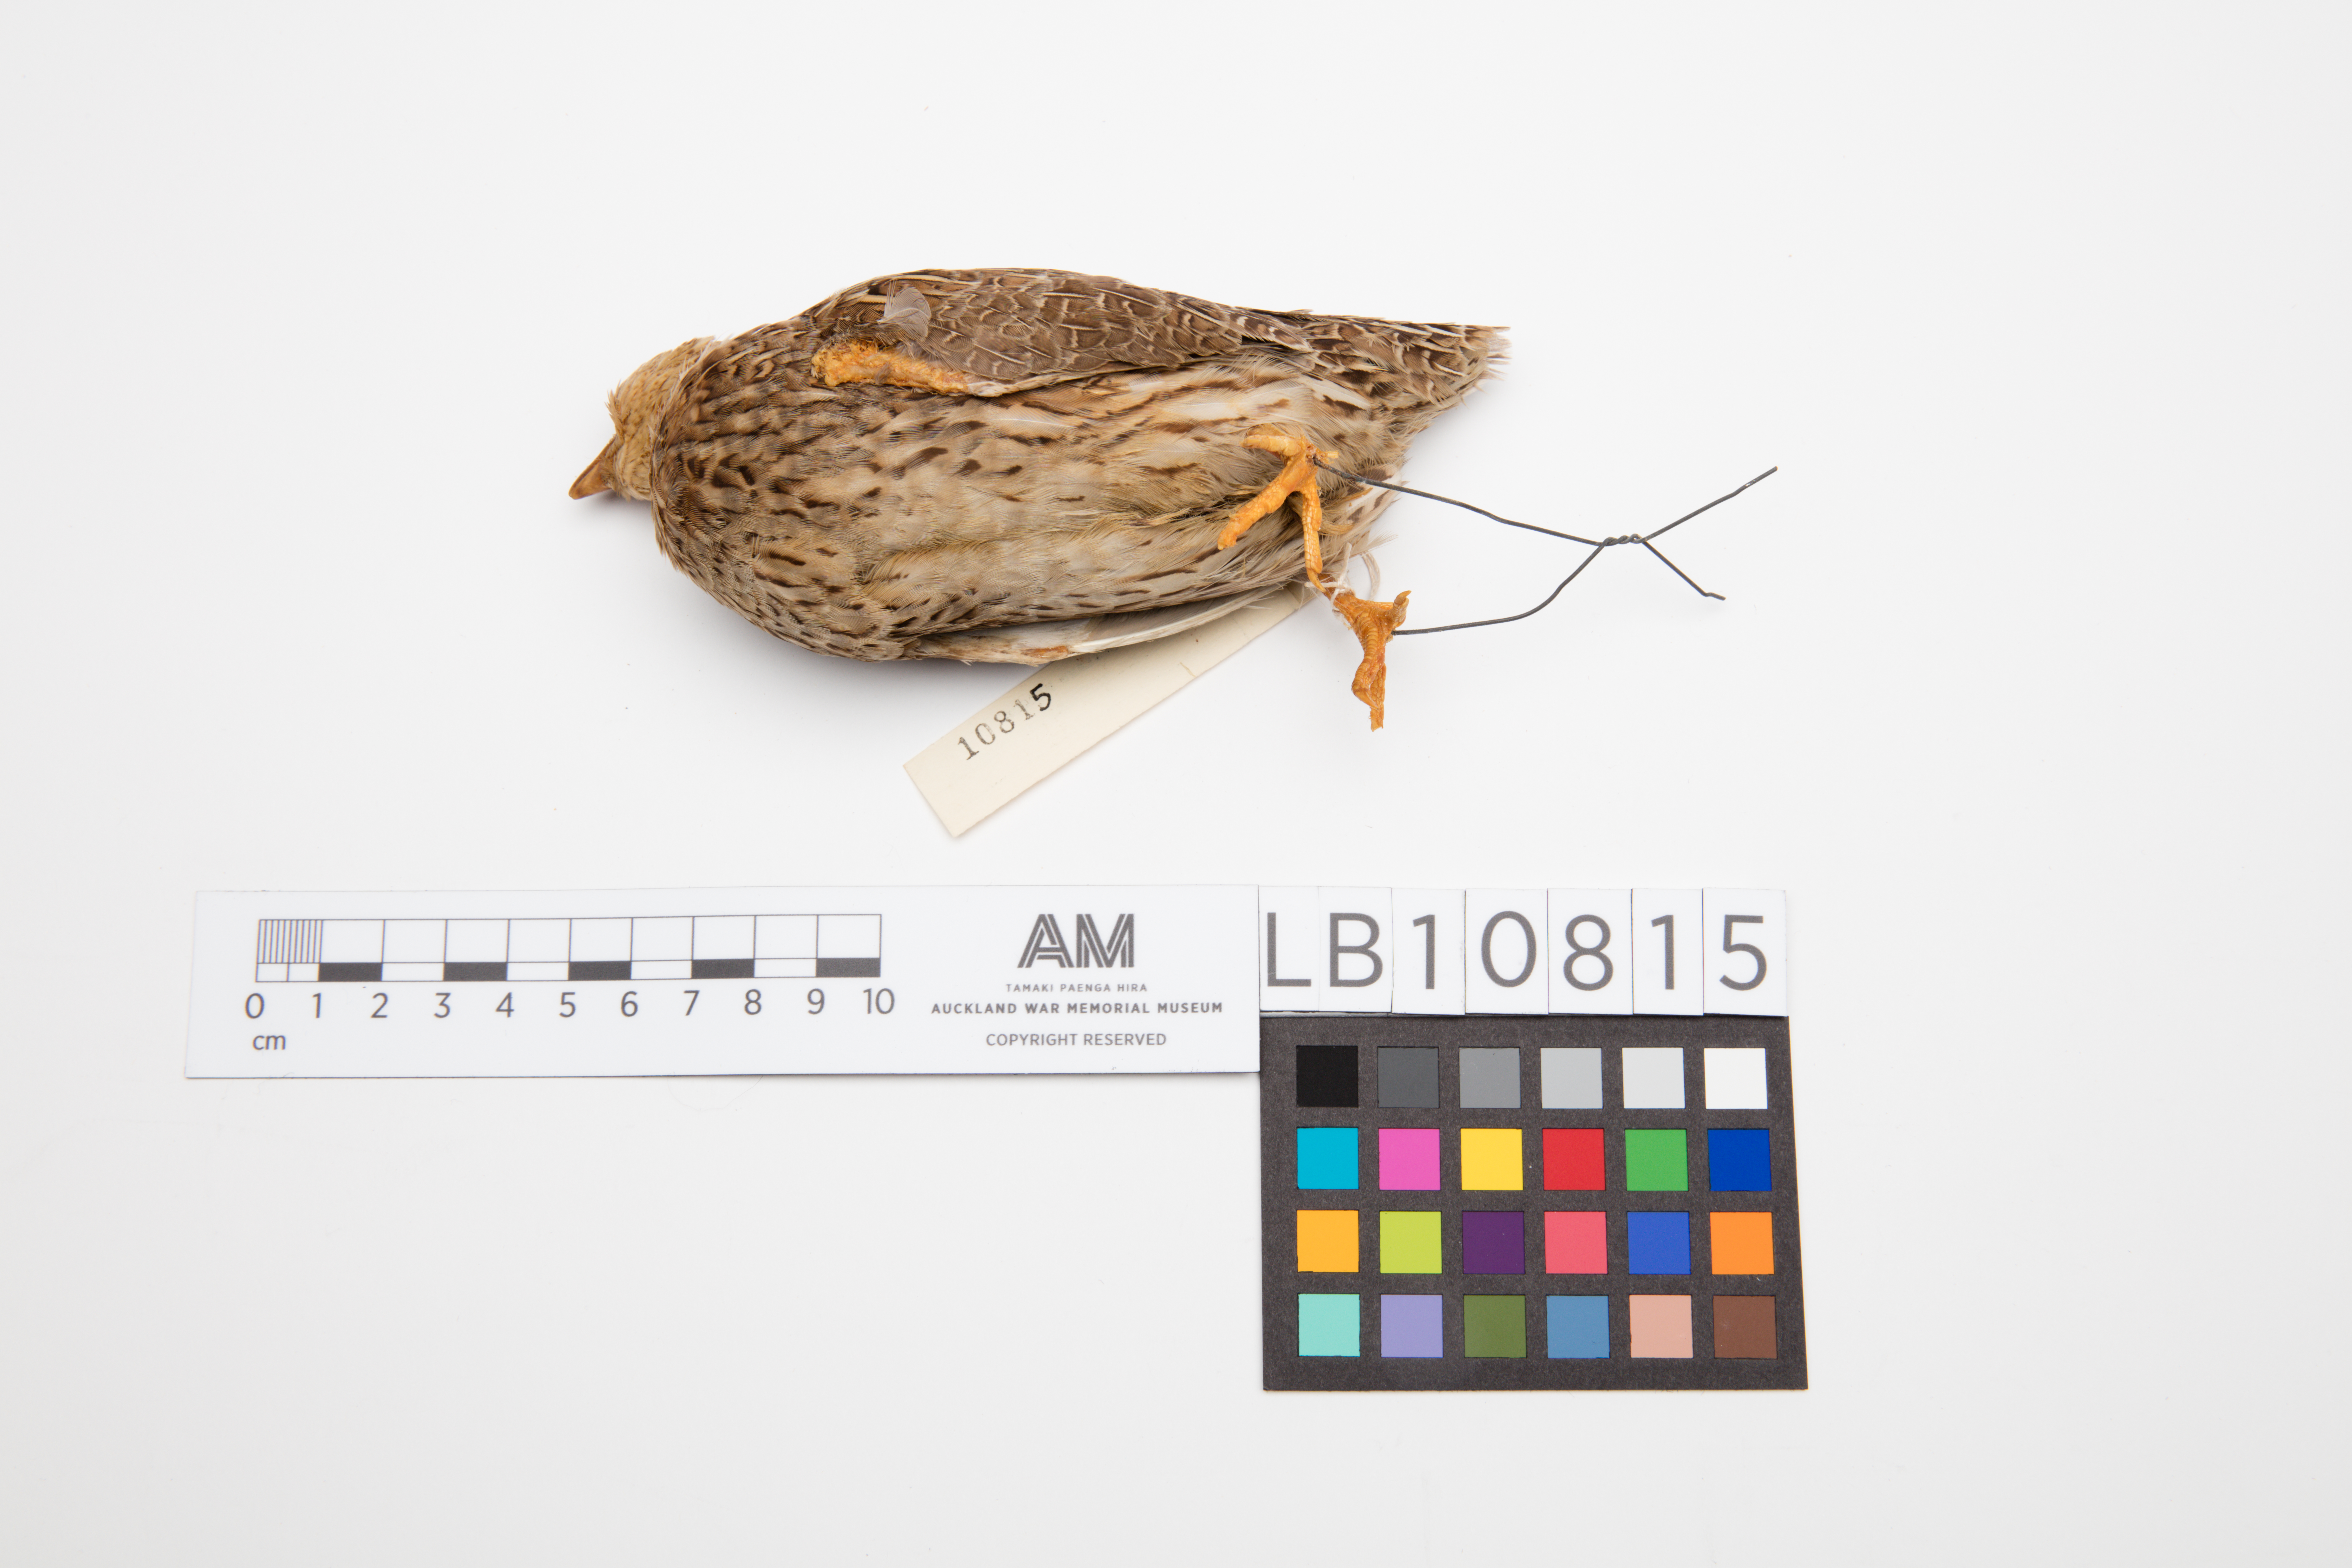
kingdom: Animalia
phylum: Chordata
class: Aves
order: Galliformes
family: Phasianidae
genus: Coturnix
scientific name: Coturnix coturnix
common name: Common quail
